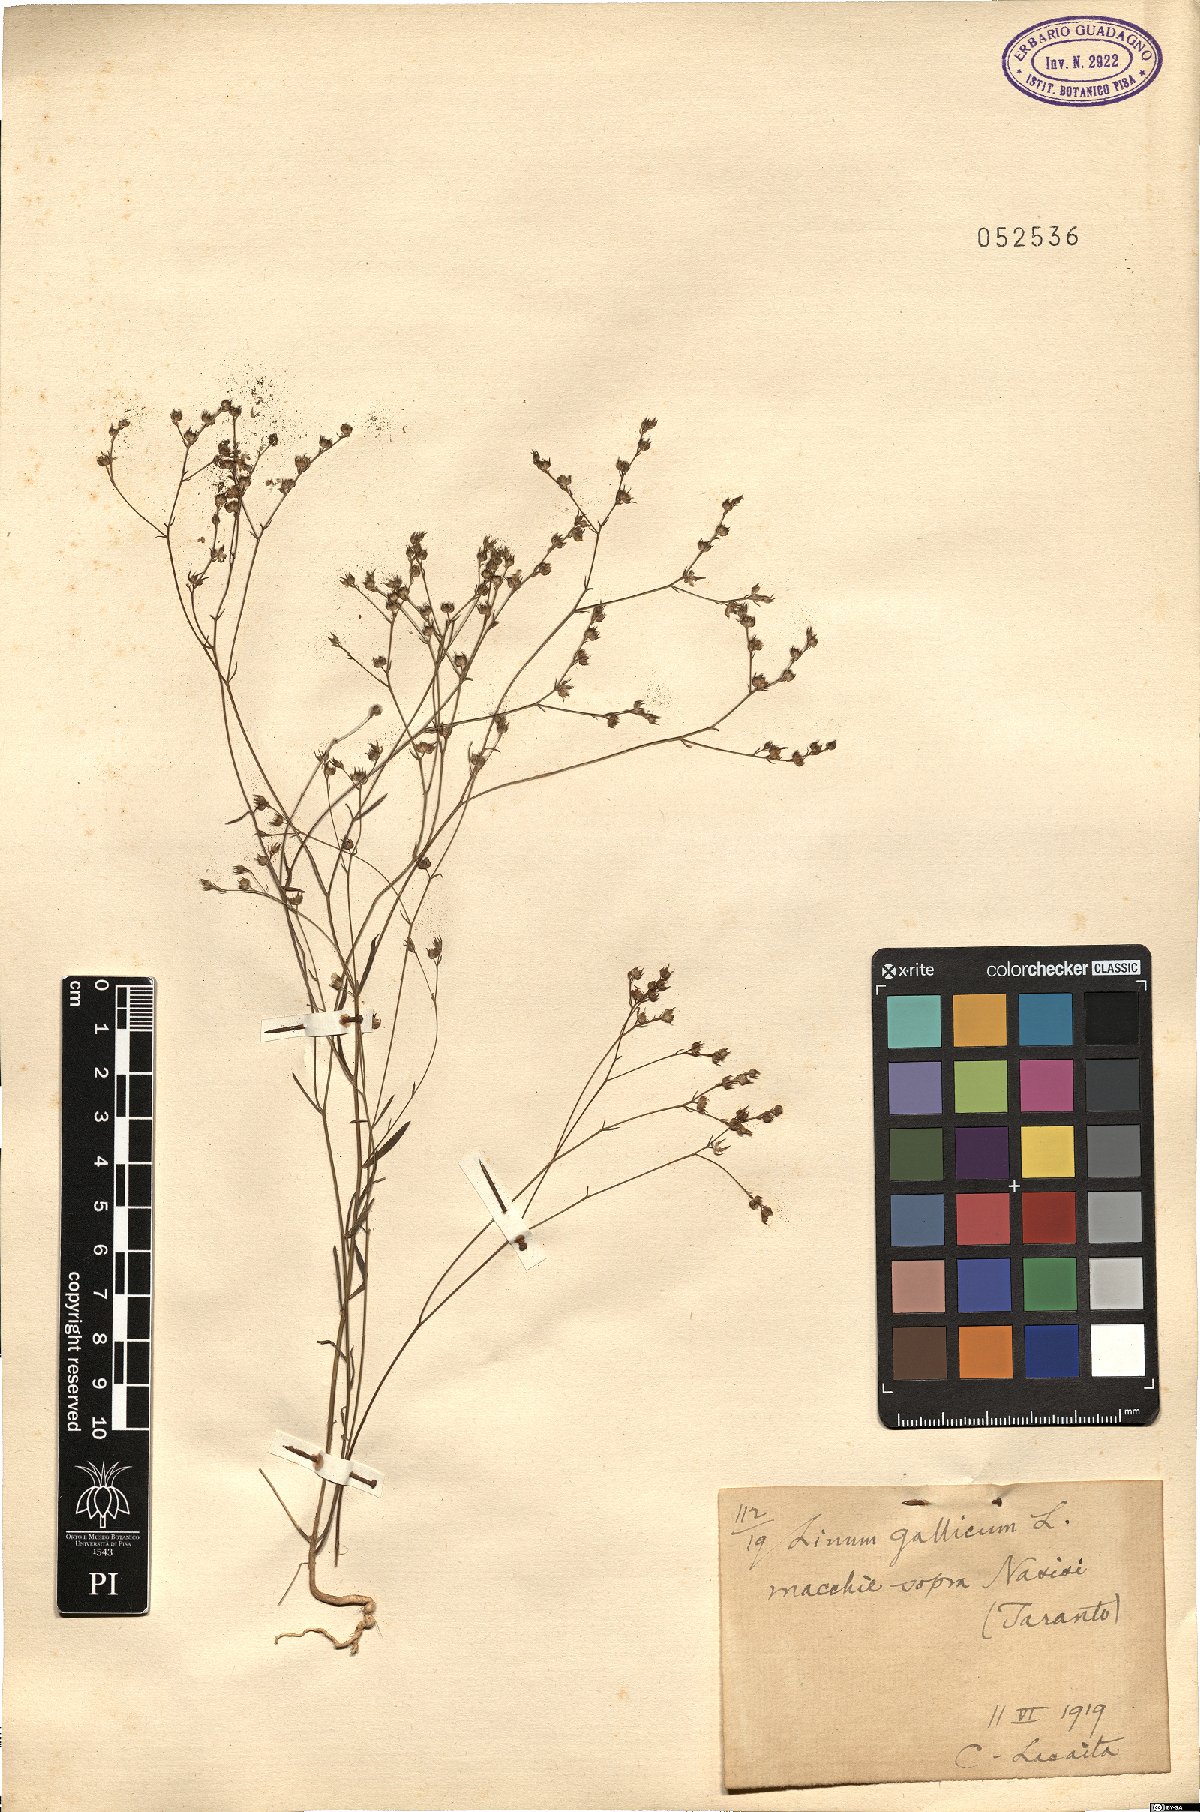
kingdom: Plantae
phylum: Tracheophyta
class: Magnoliopsida
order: Malpighiales
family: Linaceae
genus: Linum
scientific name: Linum trigynum
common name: French flax
